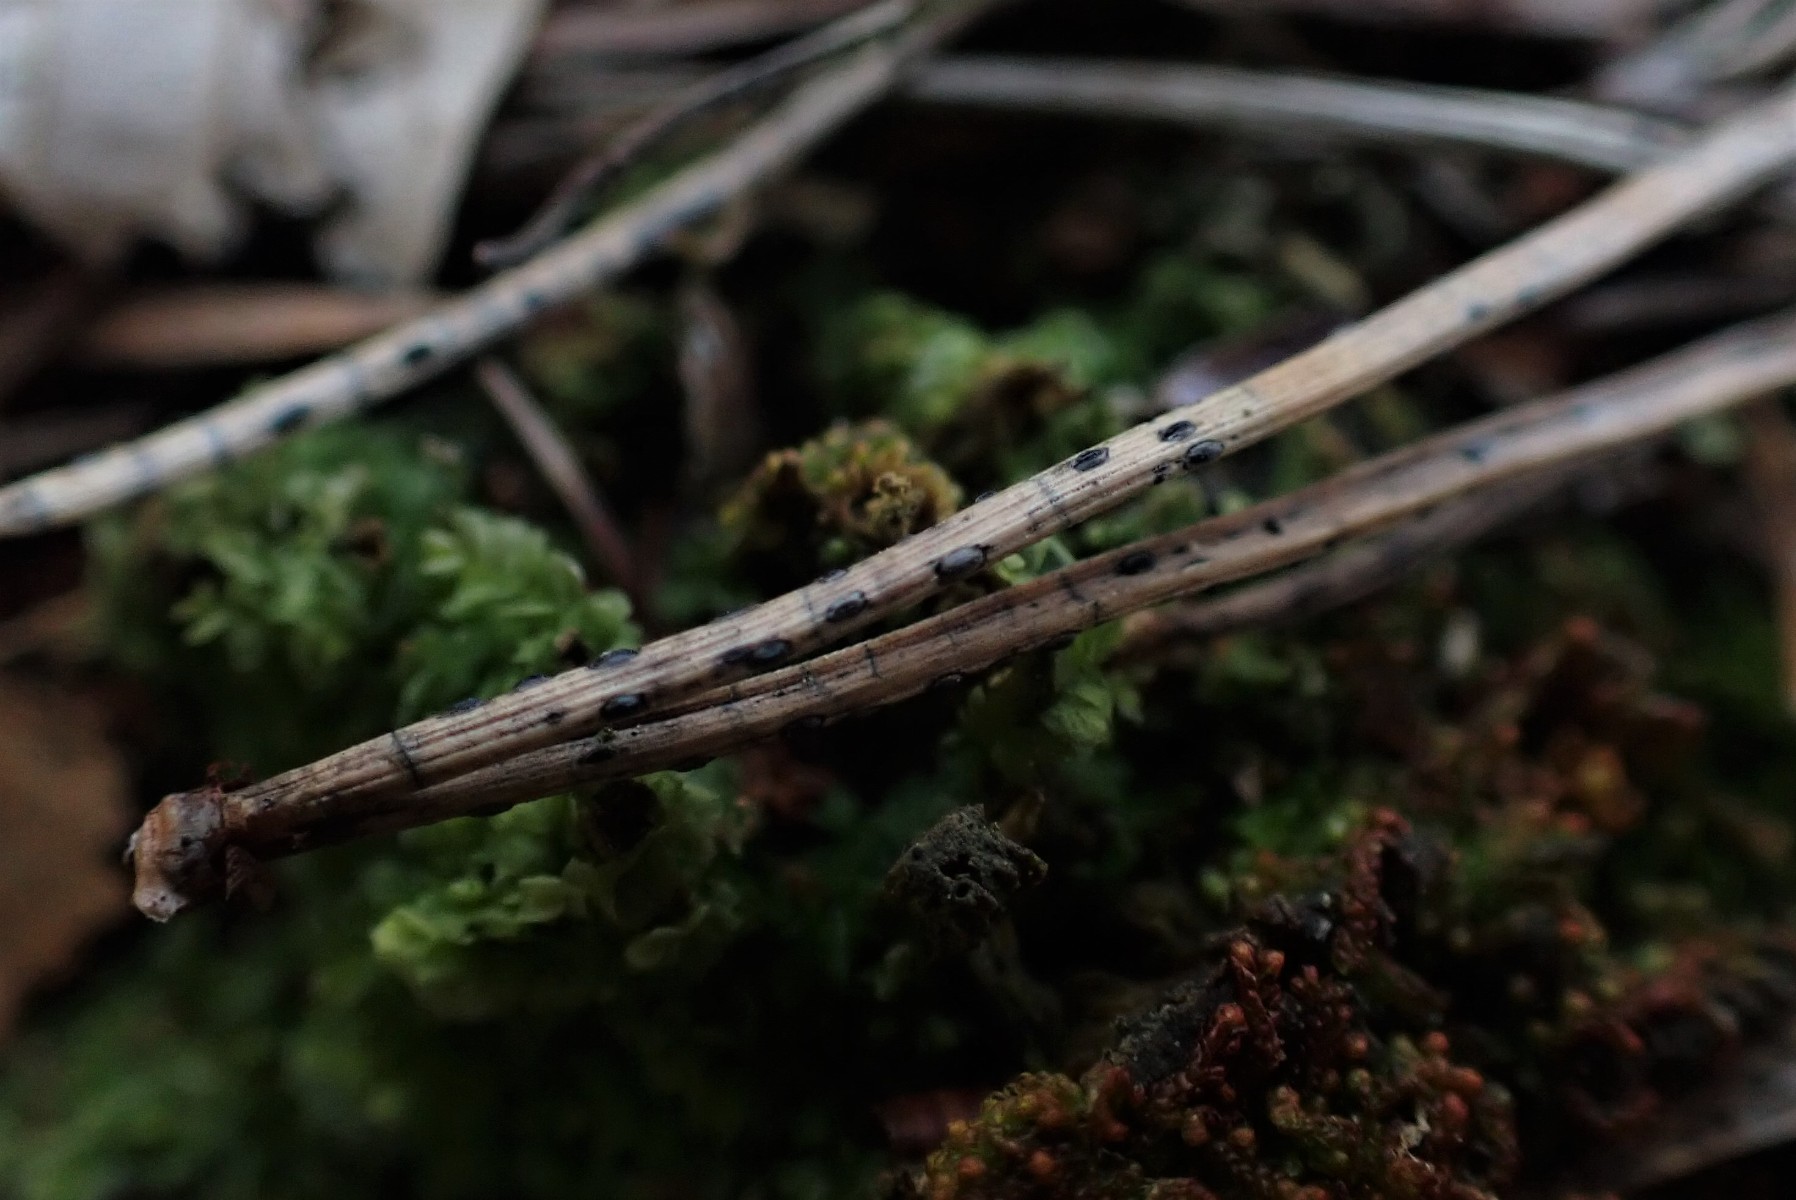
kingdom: Fungi
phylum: Ascomycota
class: Leotiomycetes
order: Rhytismatales
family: Rhytismataceae
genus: Lophodermium
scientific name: Lophodermium pinastri
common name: fyrre-fureplet
